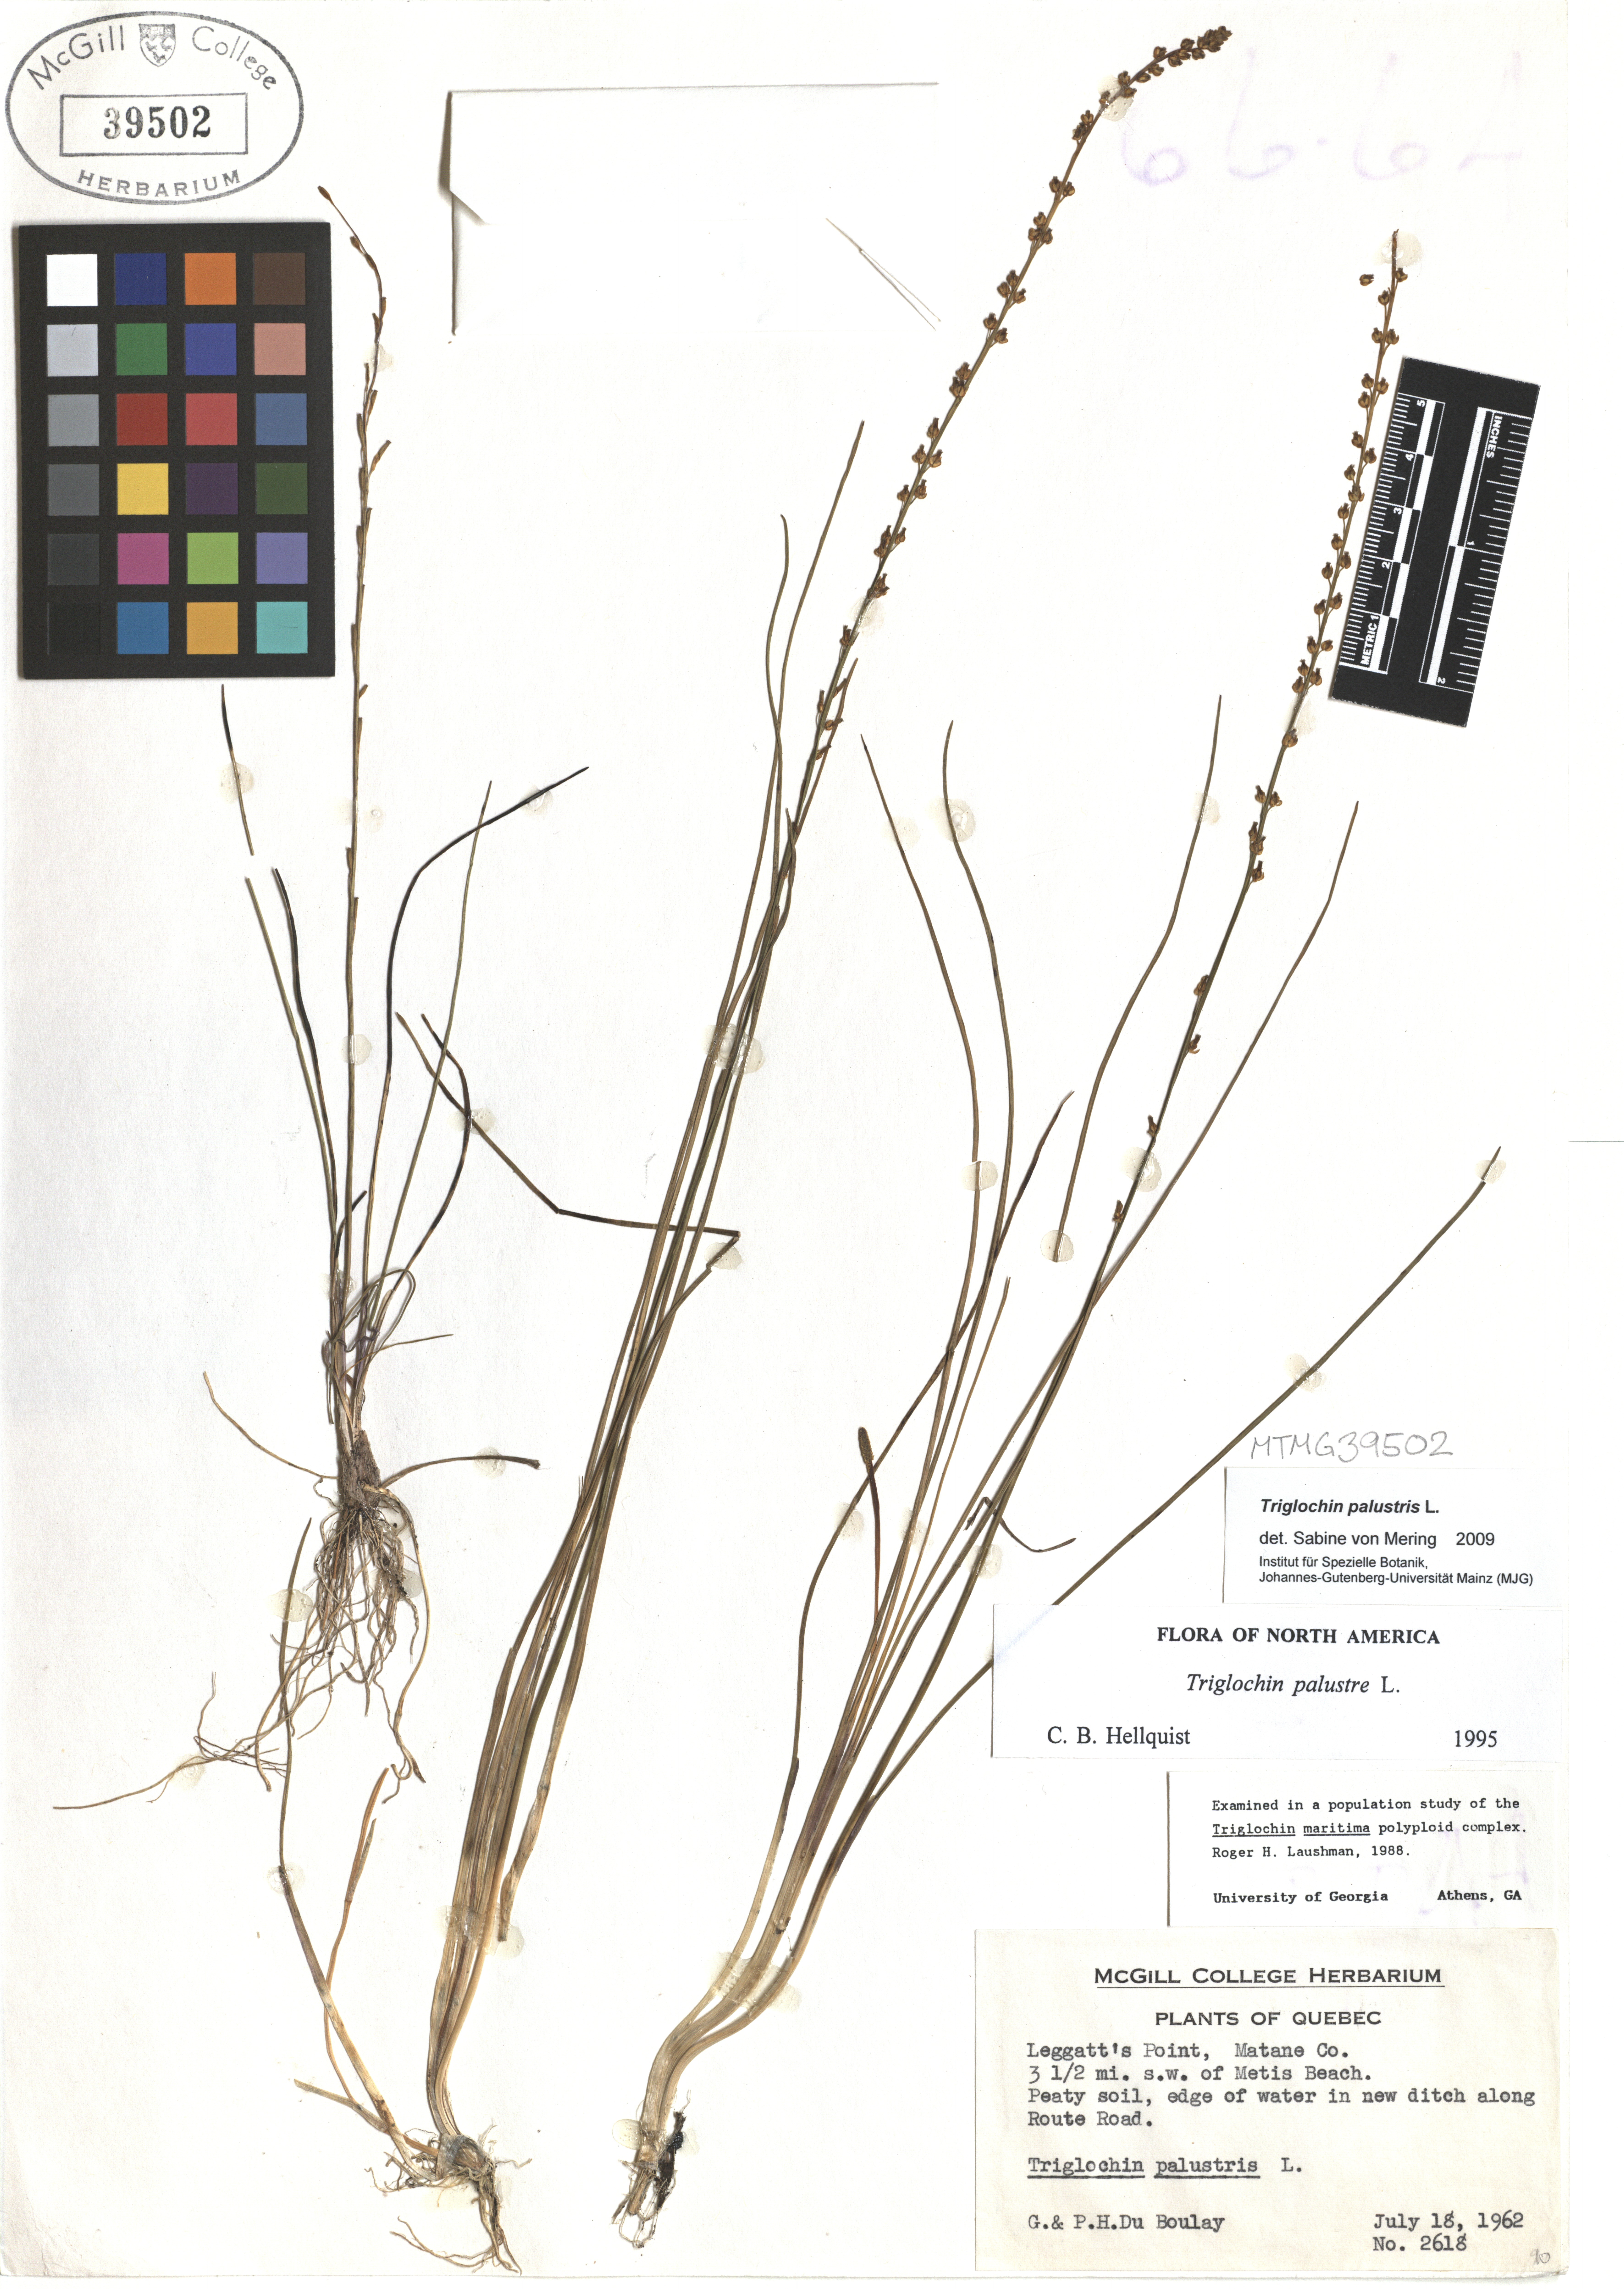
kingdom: Plantae
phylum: Tracheophyta
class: Liliopsida
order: Alismatales
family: Juncaginaceae
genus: Triglochin
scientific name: Triglochin palustris
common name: Marsh arrowgrass
